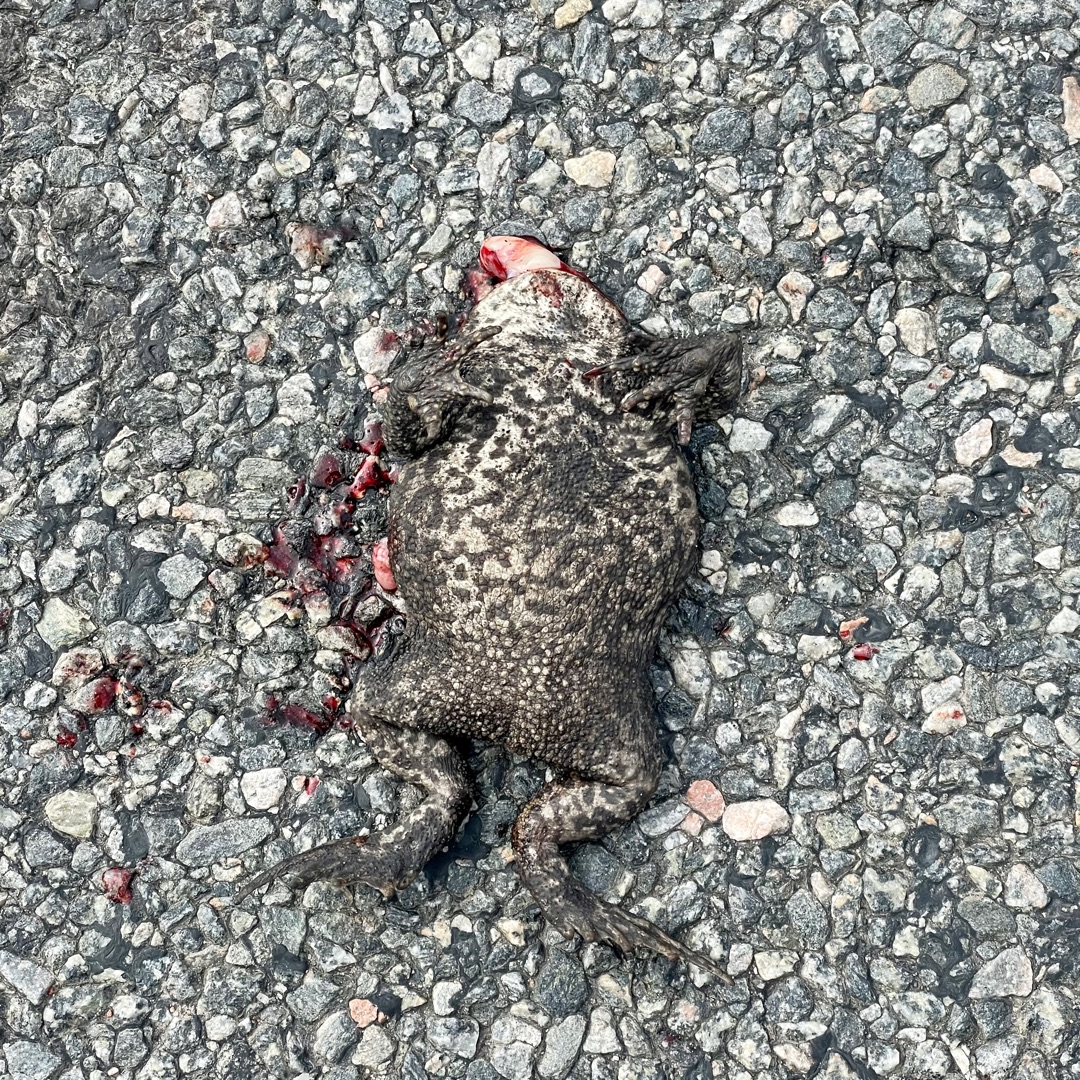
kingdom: Animalia
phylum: Chordata
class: Amphibia
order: Anura
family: Bufonidae
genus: Bufo
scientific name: Bufo bufo
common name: Skrubtudse
